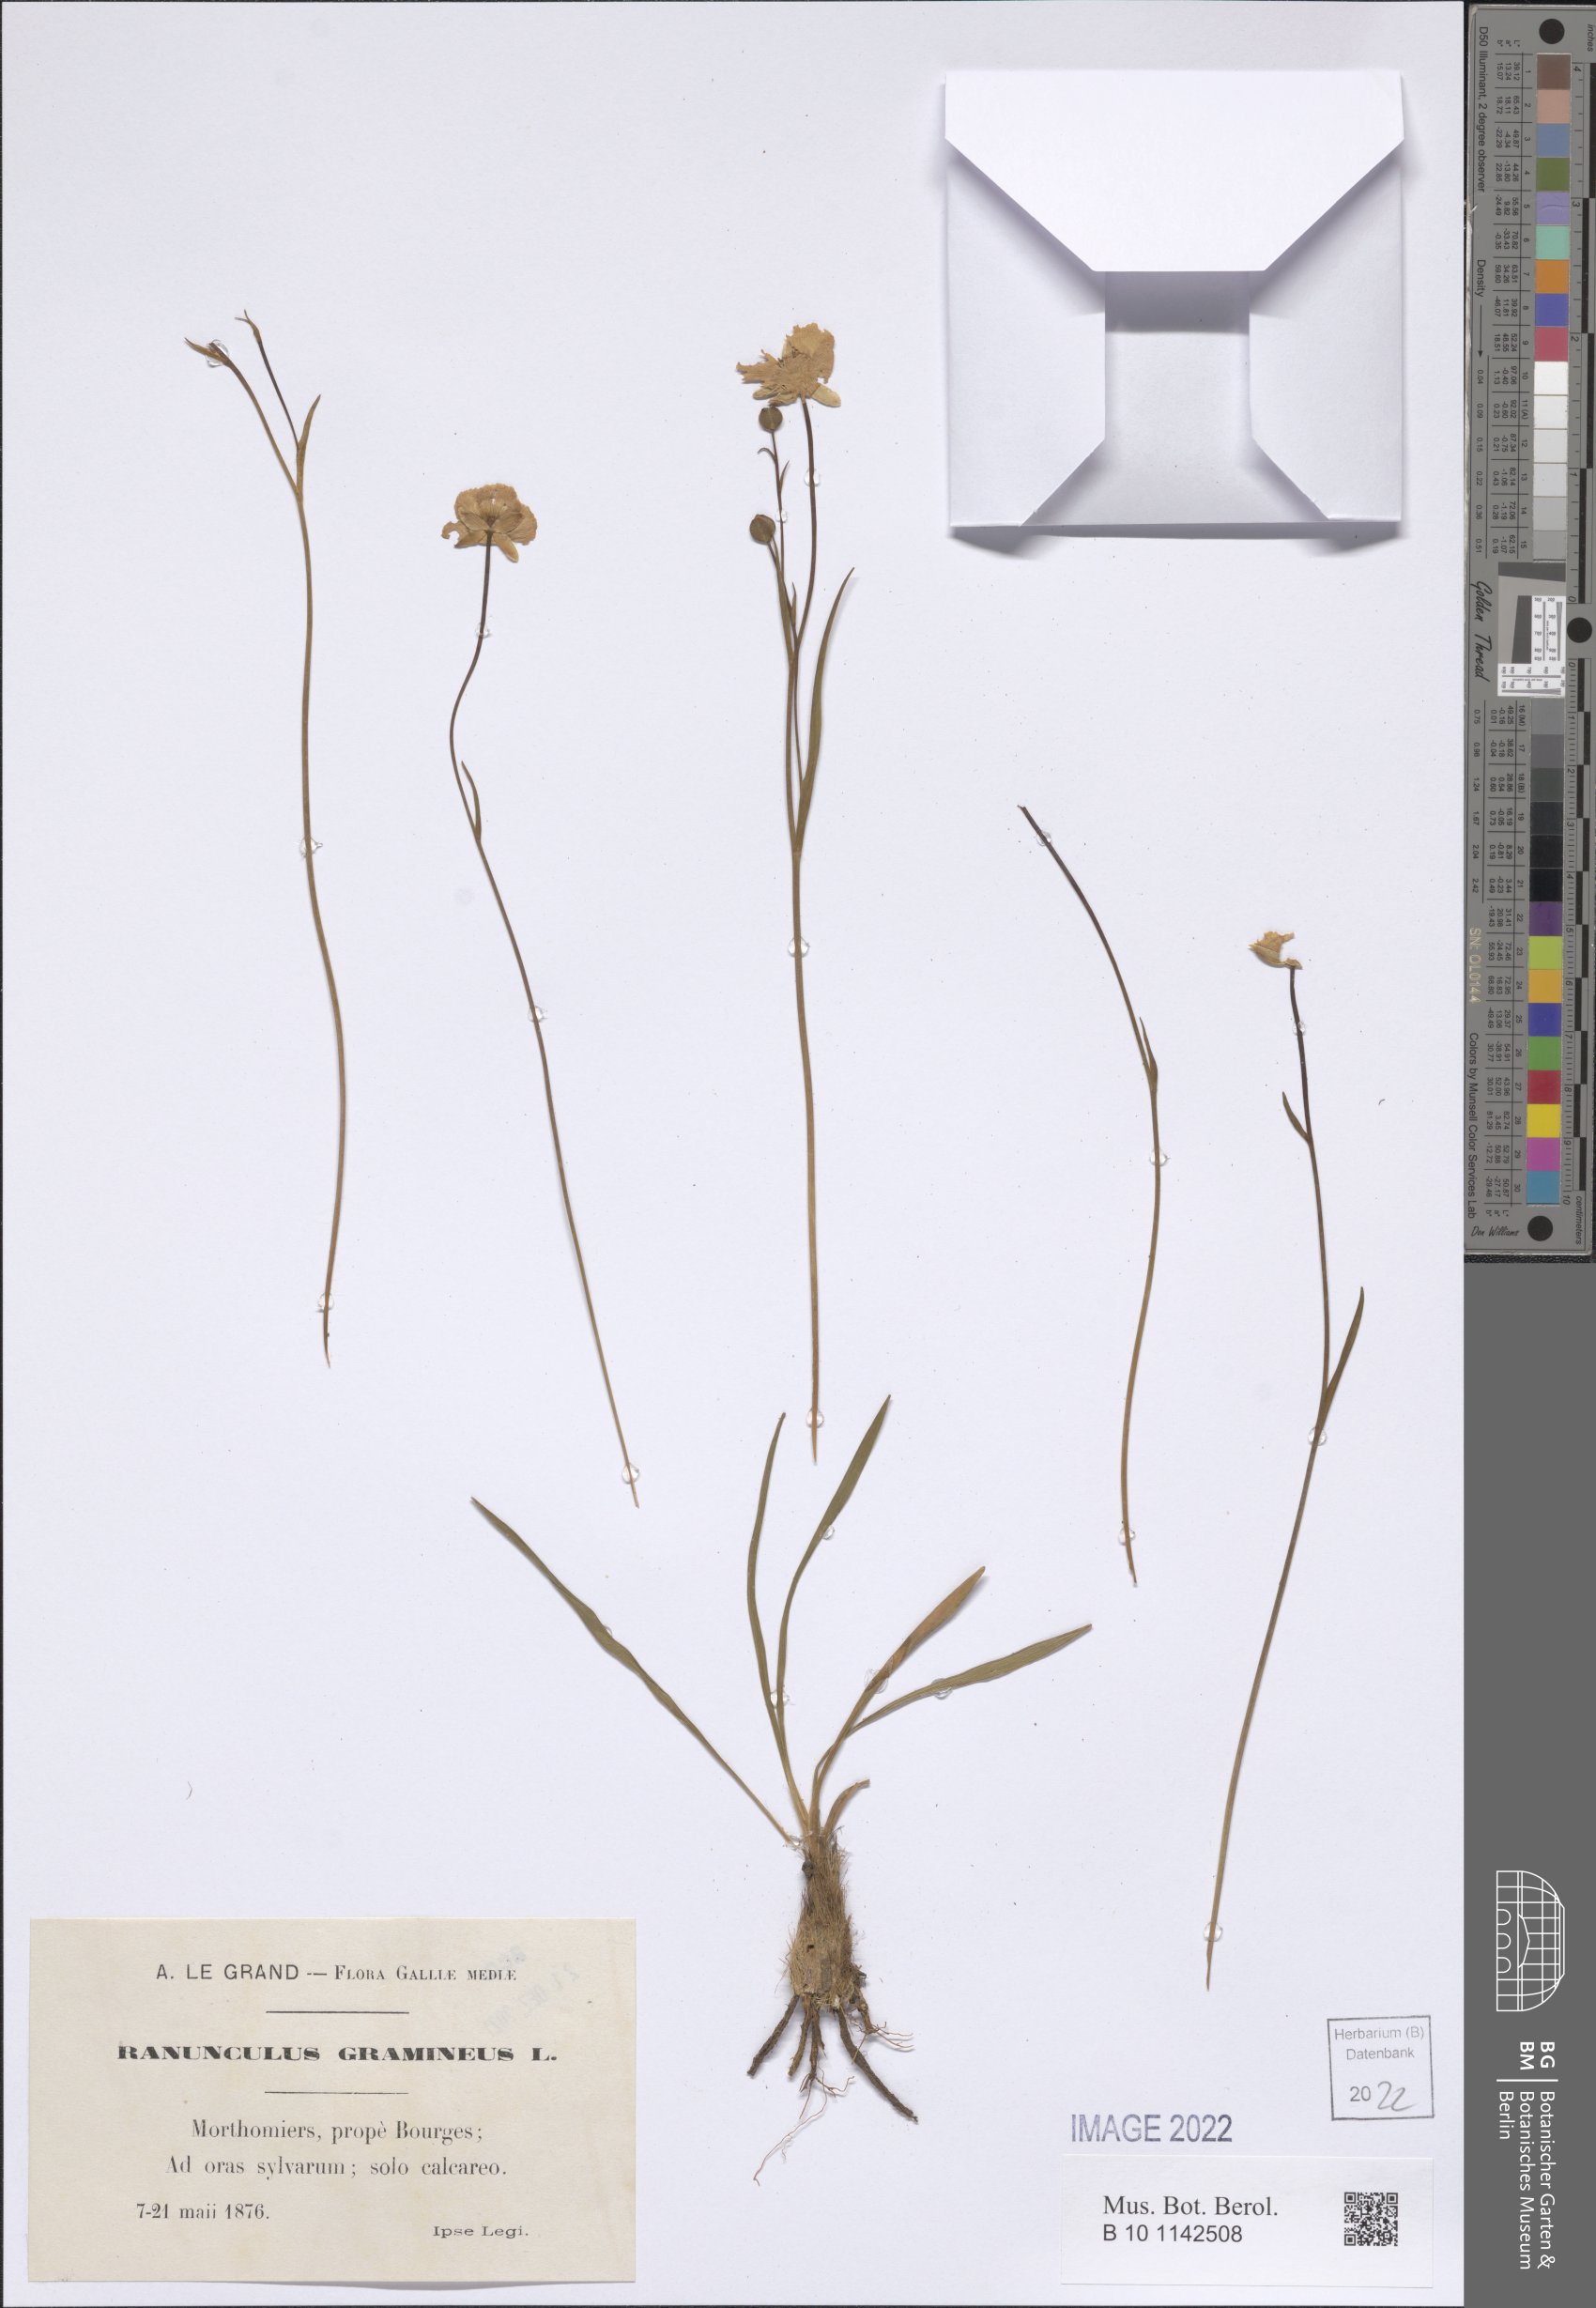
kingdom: Plantae
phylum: Tracheophyta
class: Magnoliopsida
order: Ranunculales
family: Ranunculaceae
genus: Ranunculus
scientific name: Ranunculus gramineus
